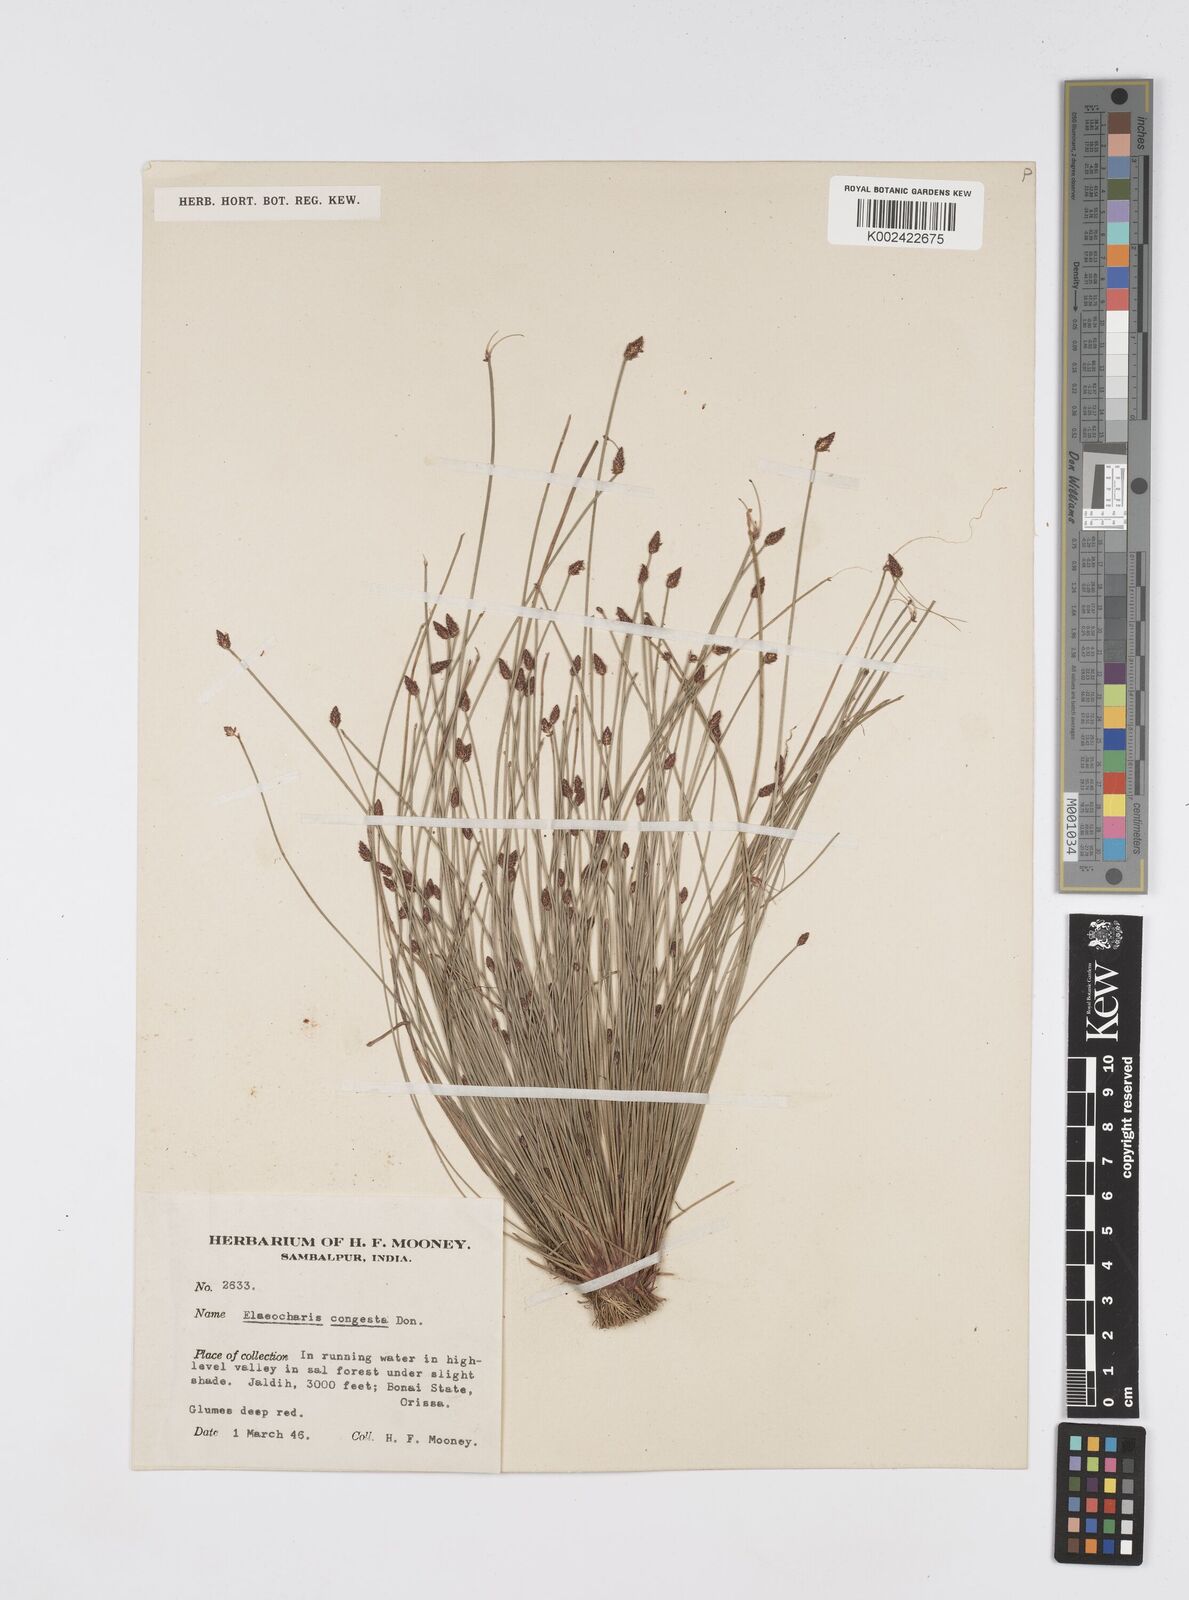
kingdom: Plantae
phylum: Tracheophyta
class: Liliopsida
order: Poales
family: Cyperaceae
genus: Eleocharis
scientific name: Eleocharis congesta
